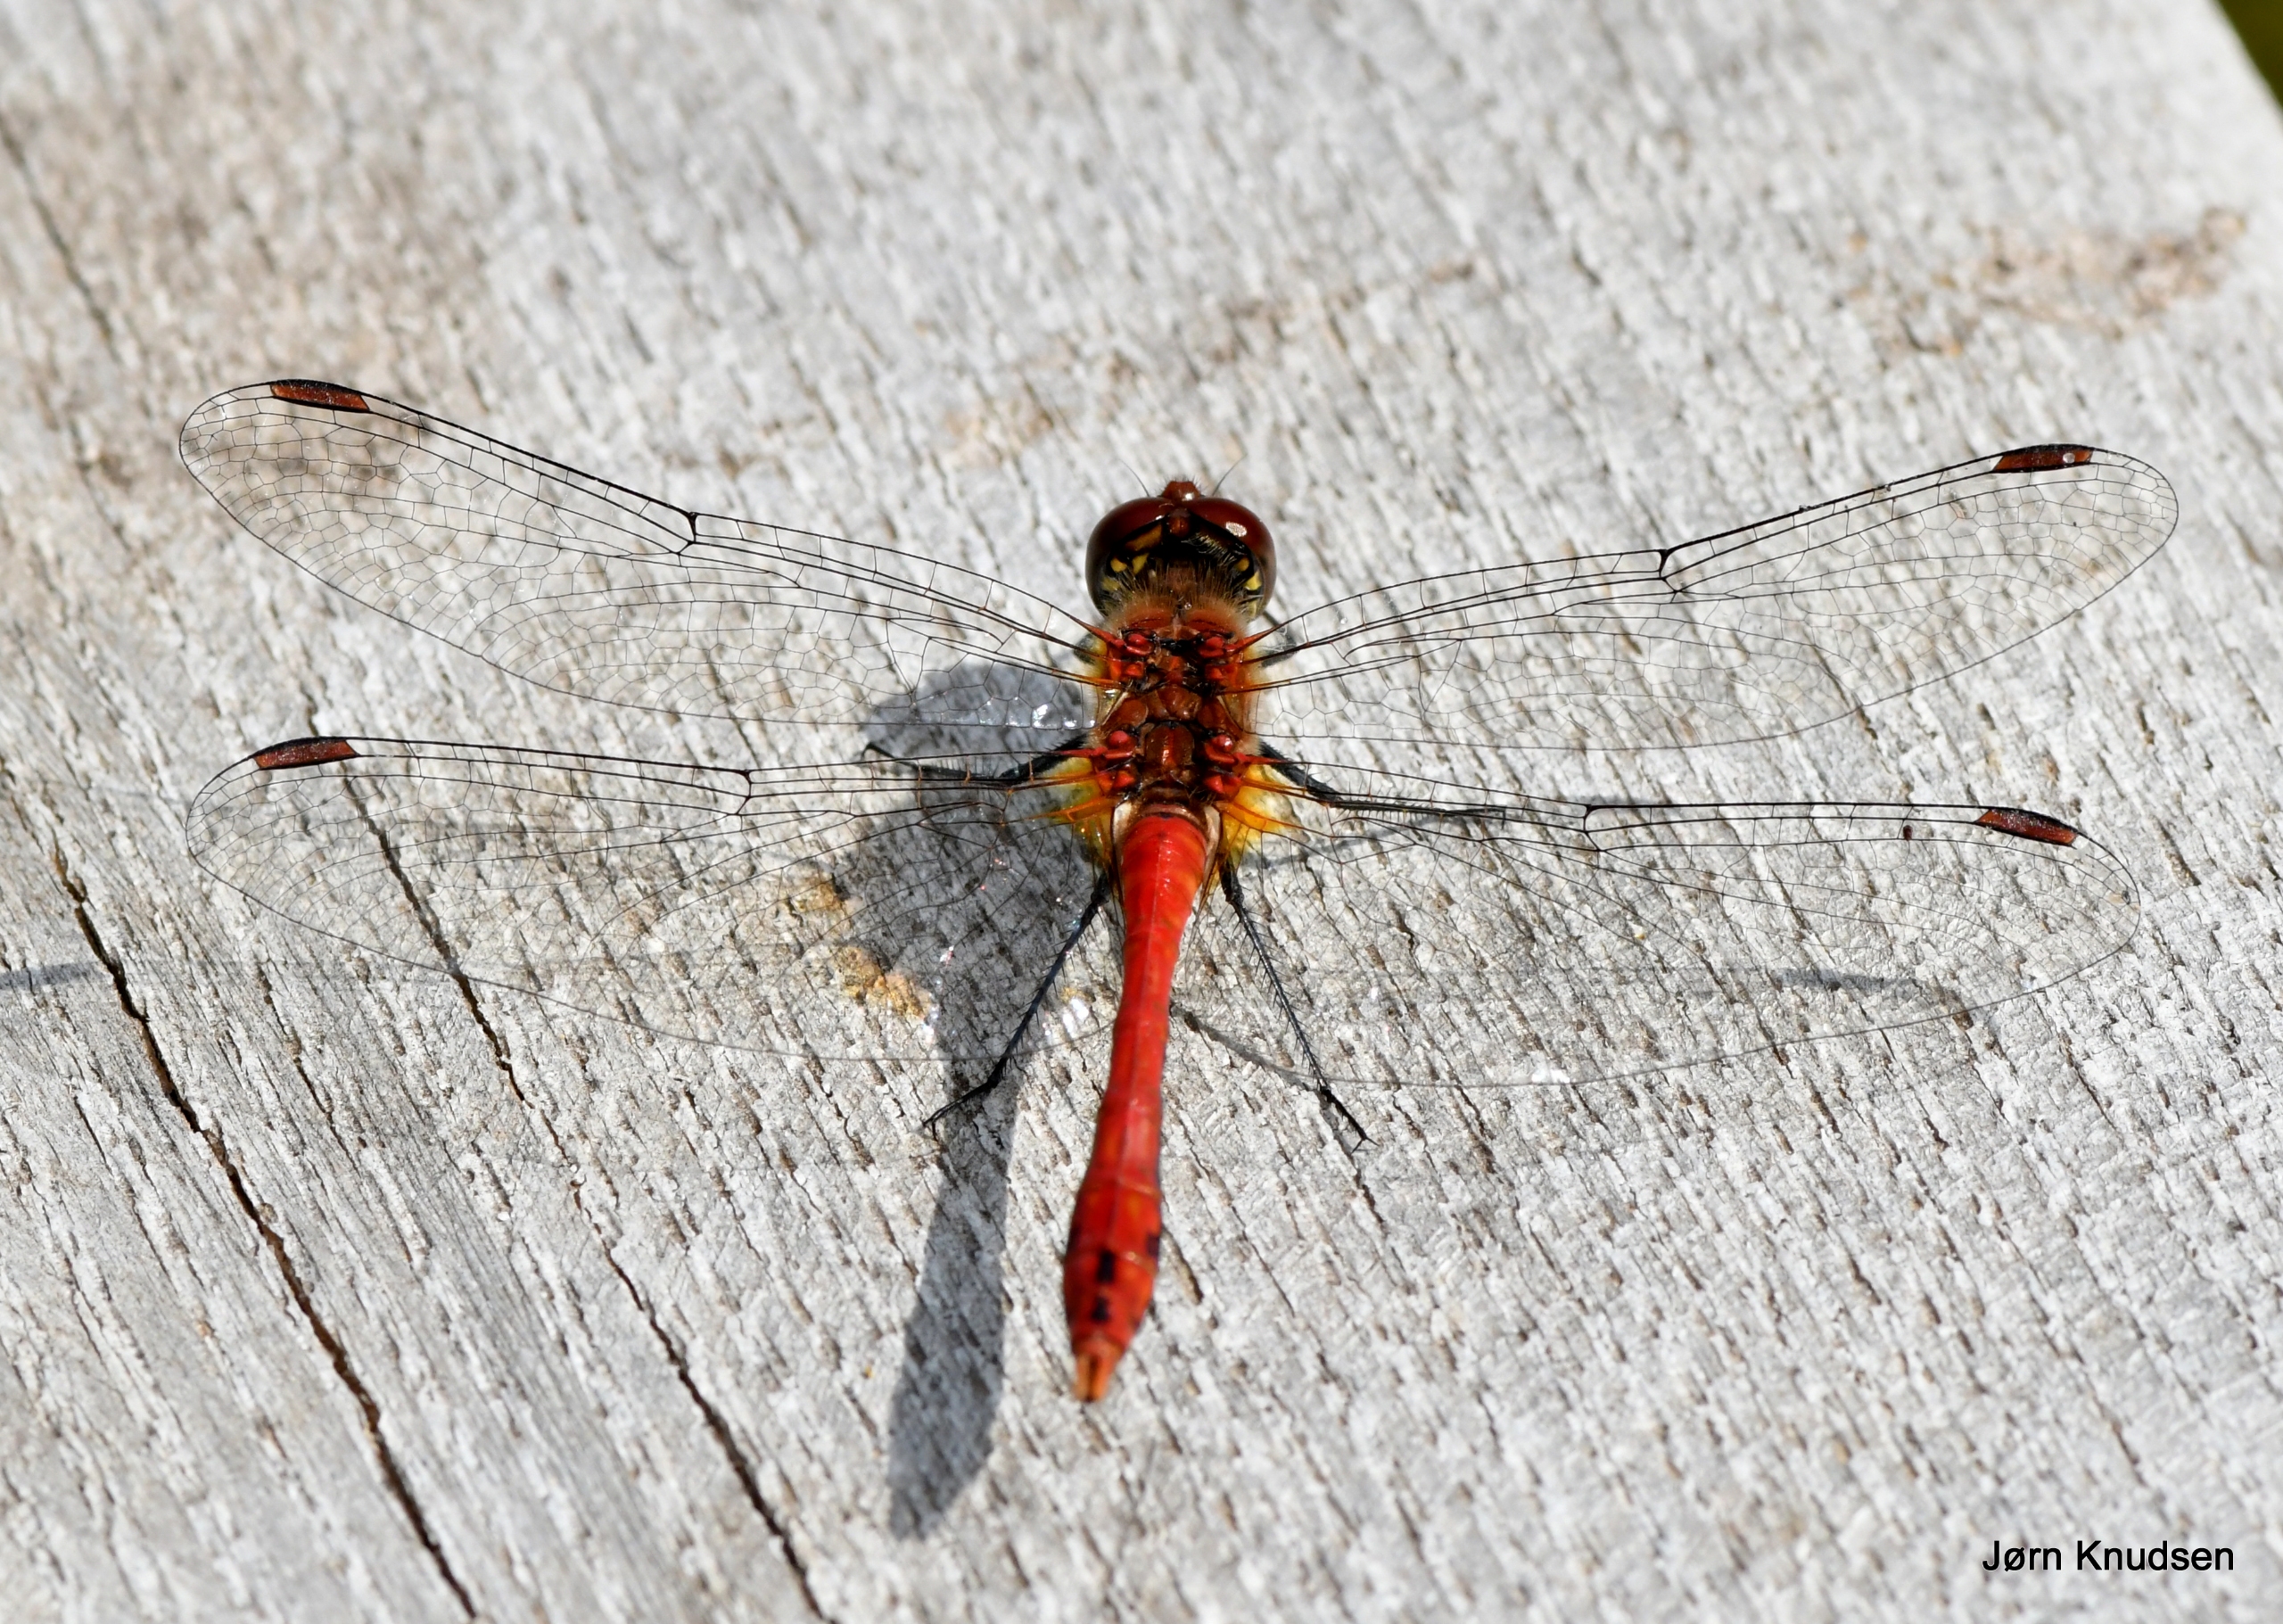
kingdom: Animalia
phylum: Arthropoda
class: Insecta
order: Odonata
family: Libellulidae
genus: Sympetrum
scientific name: Sympetrum sanguineum
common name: Blodrød hedelibel
